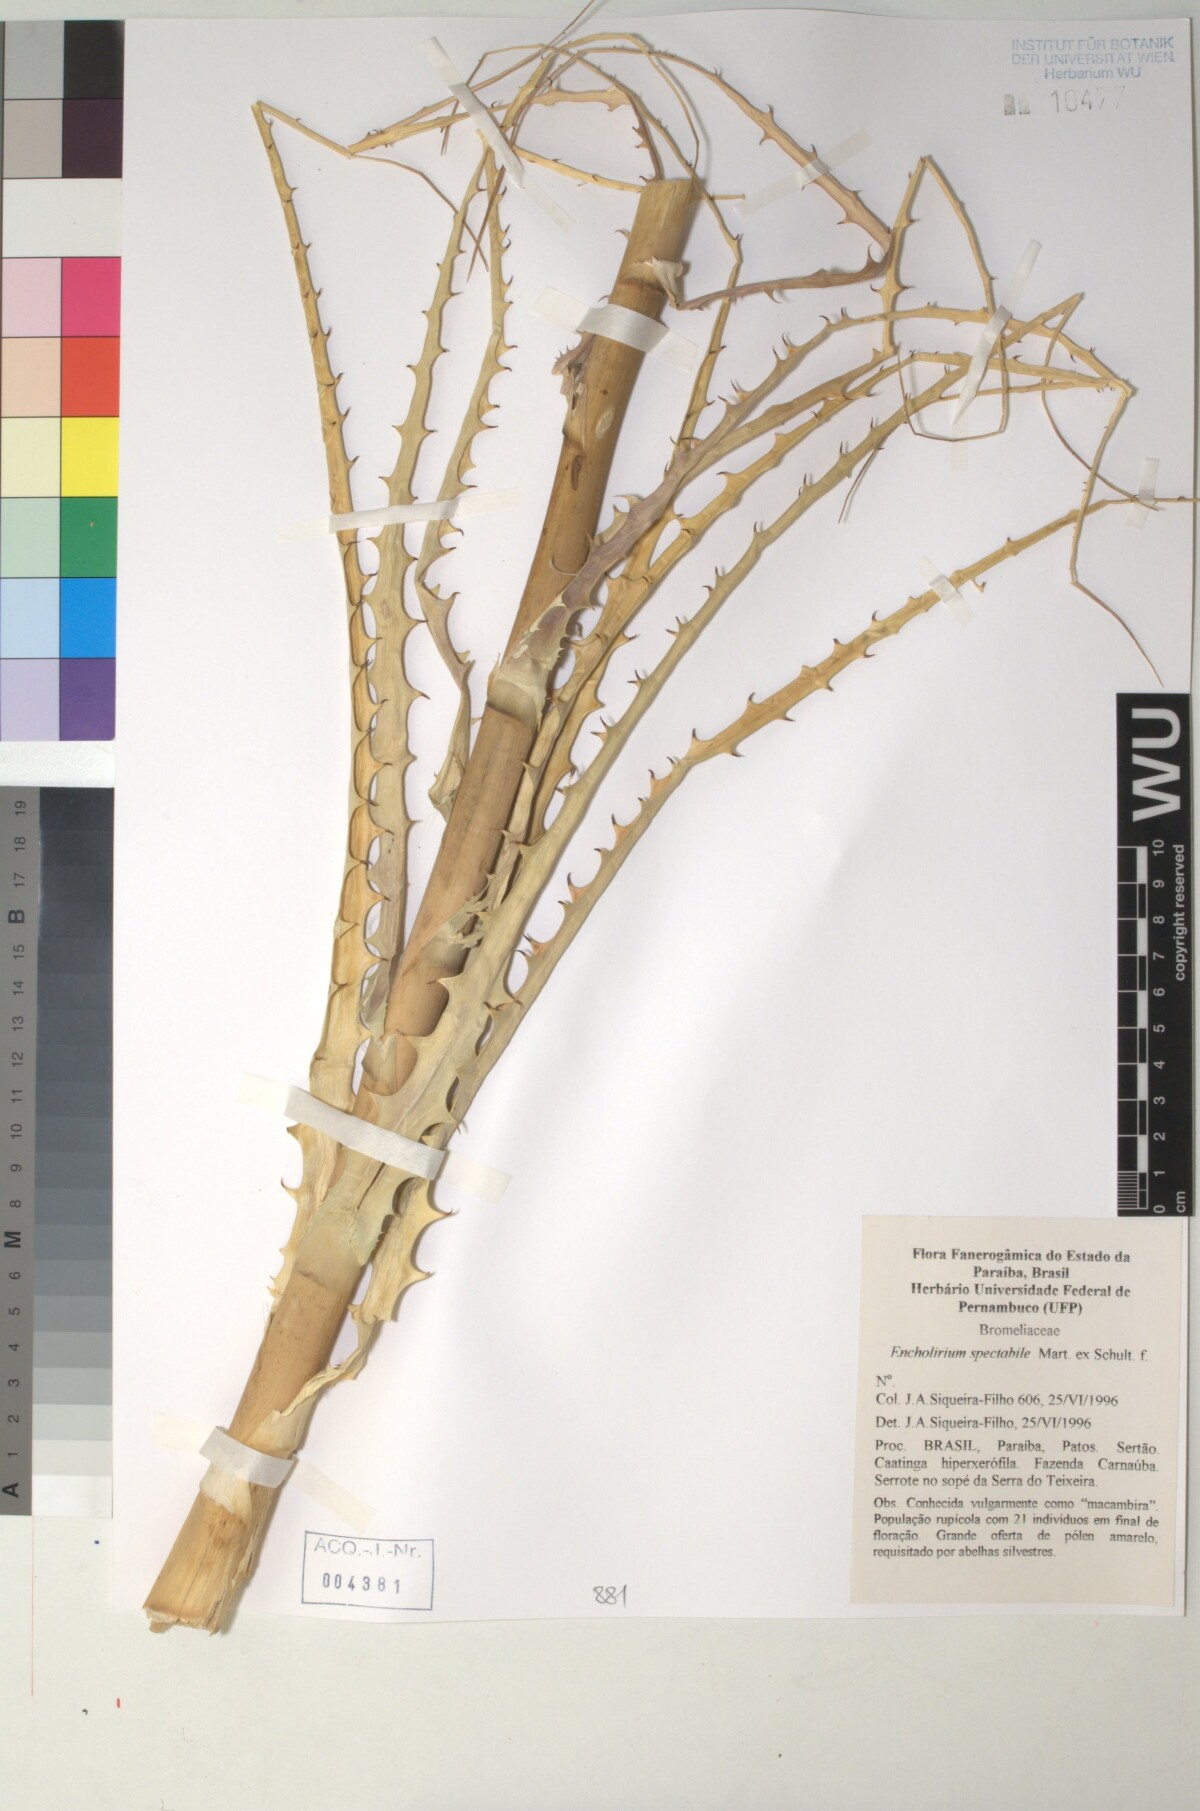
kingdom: Plantae
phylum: Tracheophyta
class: Liliopsida
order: Poales
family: Bromeliaceae
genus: Encholirium
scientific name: Encholirium
